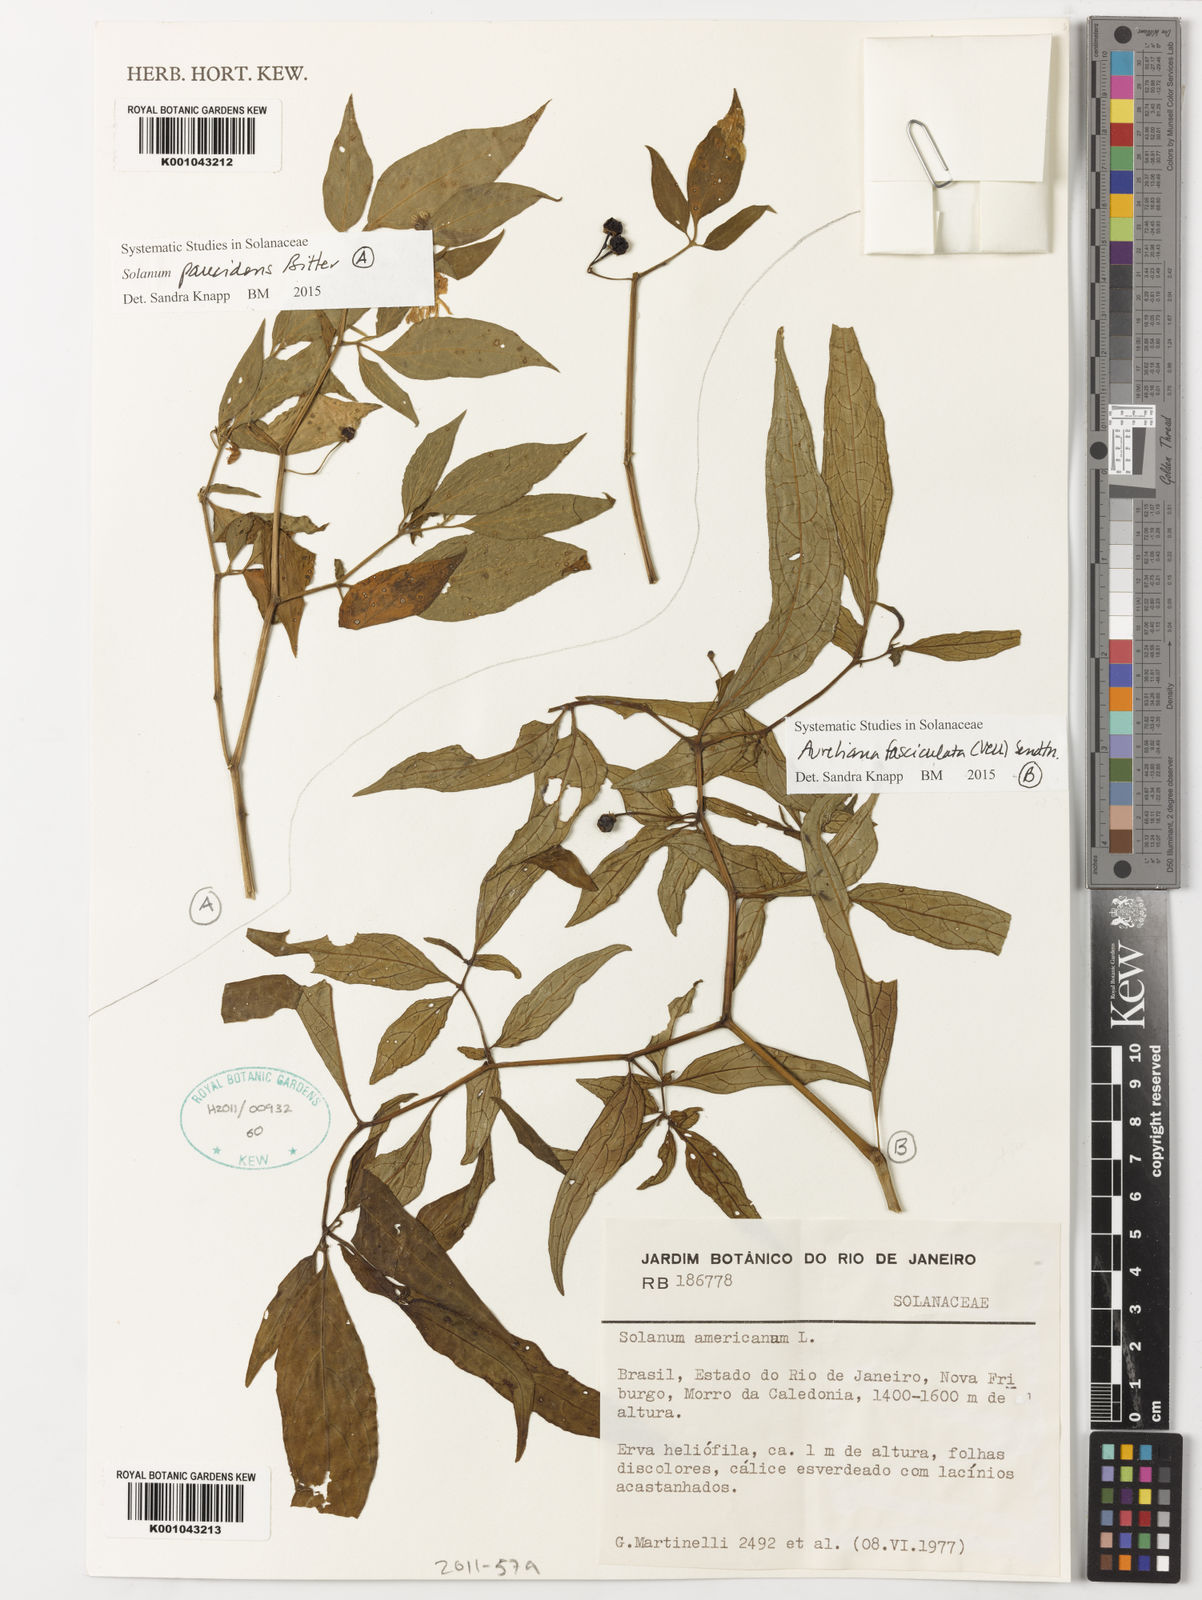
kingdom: Plantae
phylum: Tracheophyta
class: Magnoliopsida
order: Solanales
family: Solanaceae
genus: Solanum
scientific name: Solanum paucidens
